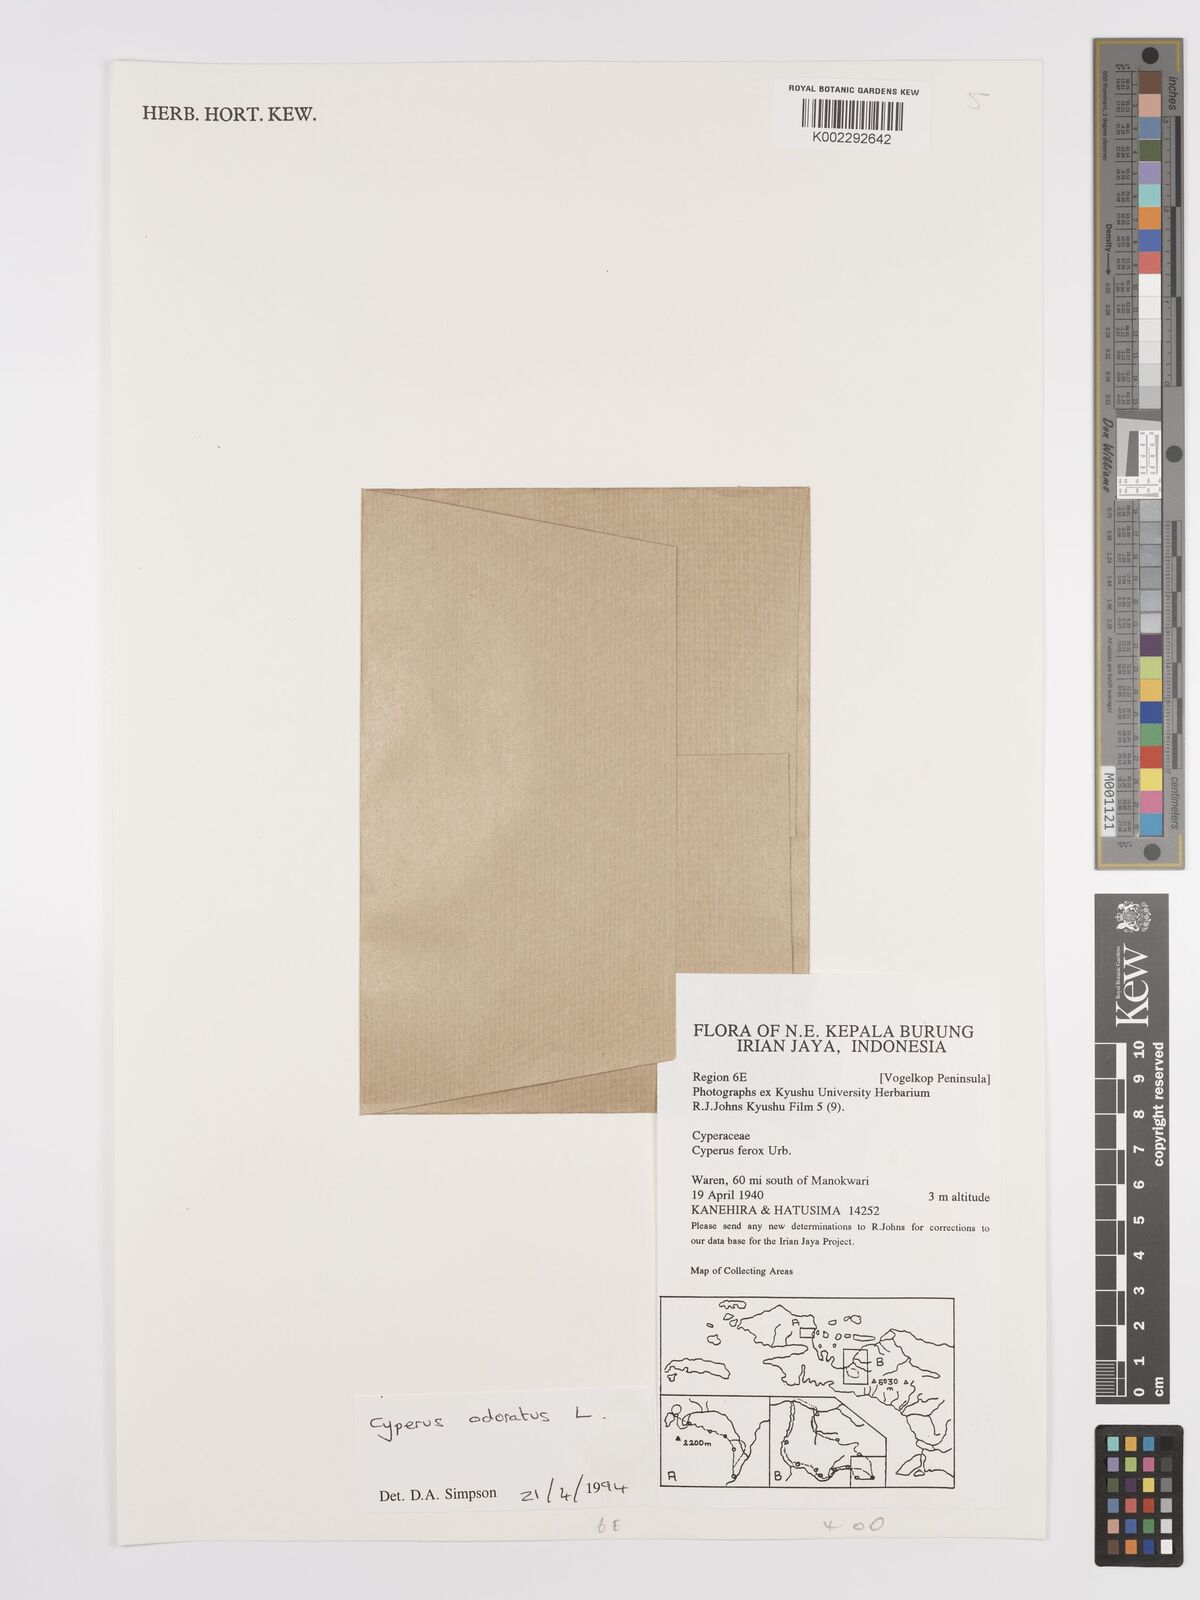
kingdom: Plantae
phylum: Tracheophyta
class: Liliopsida
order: Poales
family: Cyperaceae
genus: Cyperus
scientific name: Cyperus haspan
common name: Haspan flatsedge
